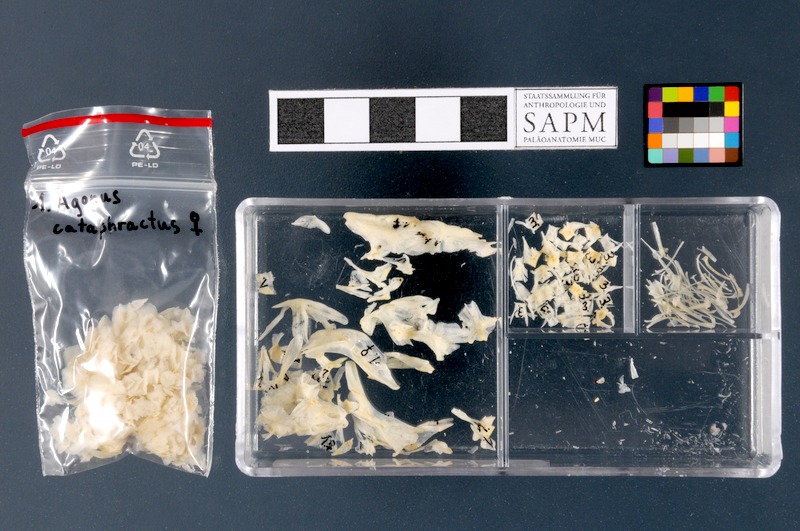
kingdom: Animalia
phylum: Chordata
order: Scorpaeniformes
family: Agonidae
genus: Agonus
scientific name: Agonus cataphractus
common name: Pogge
